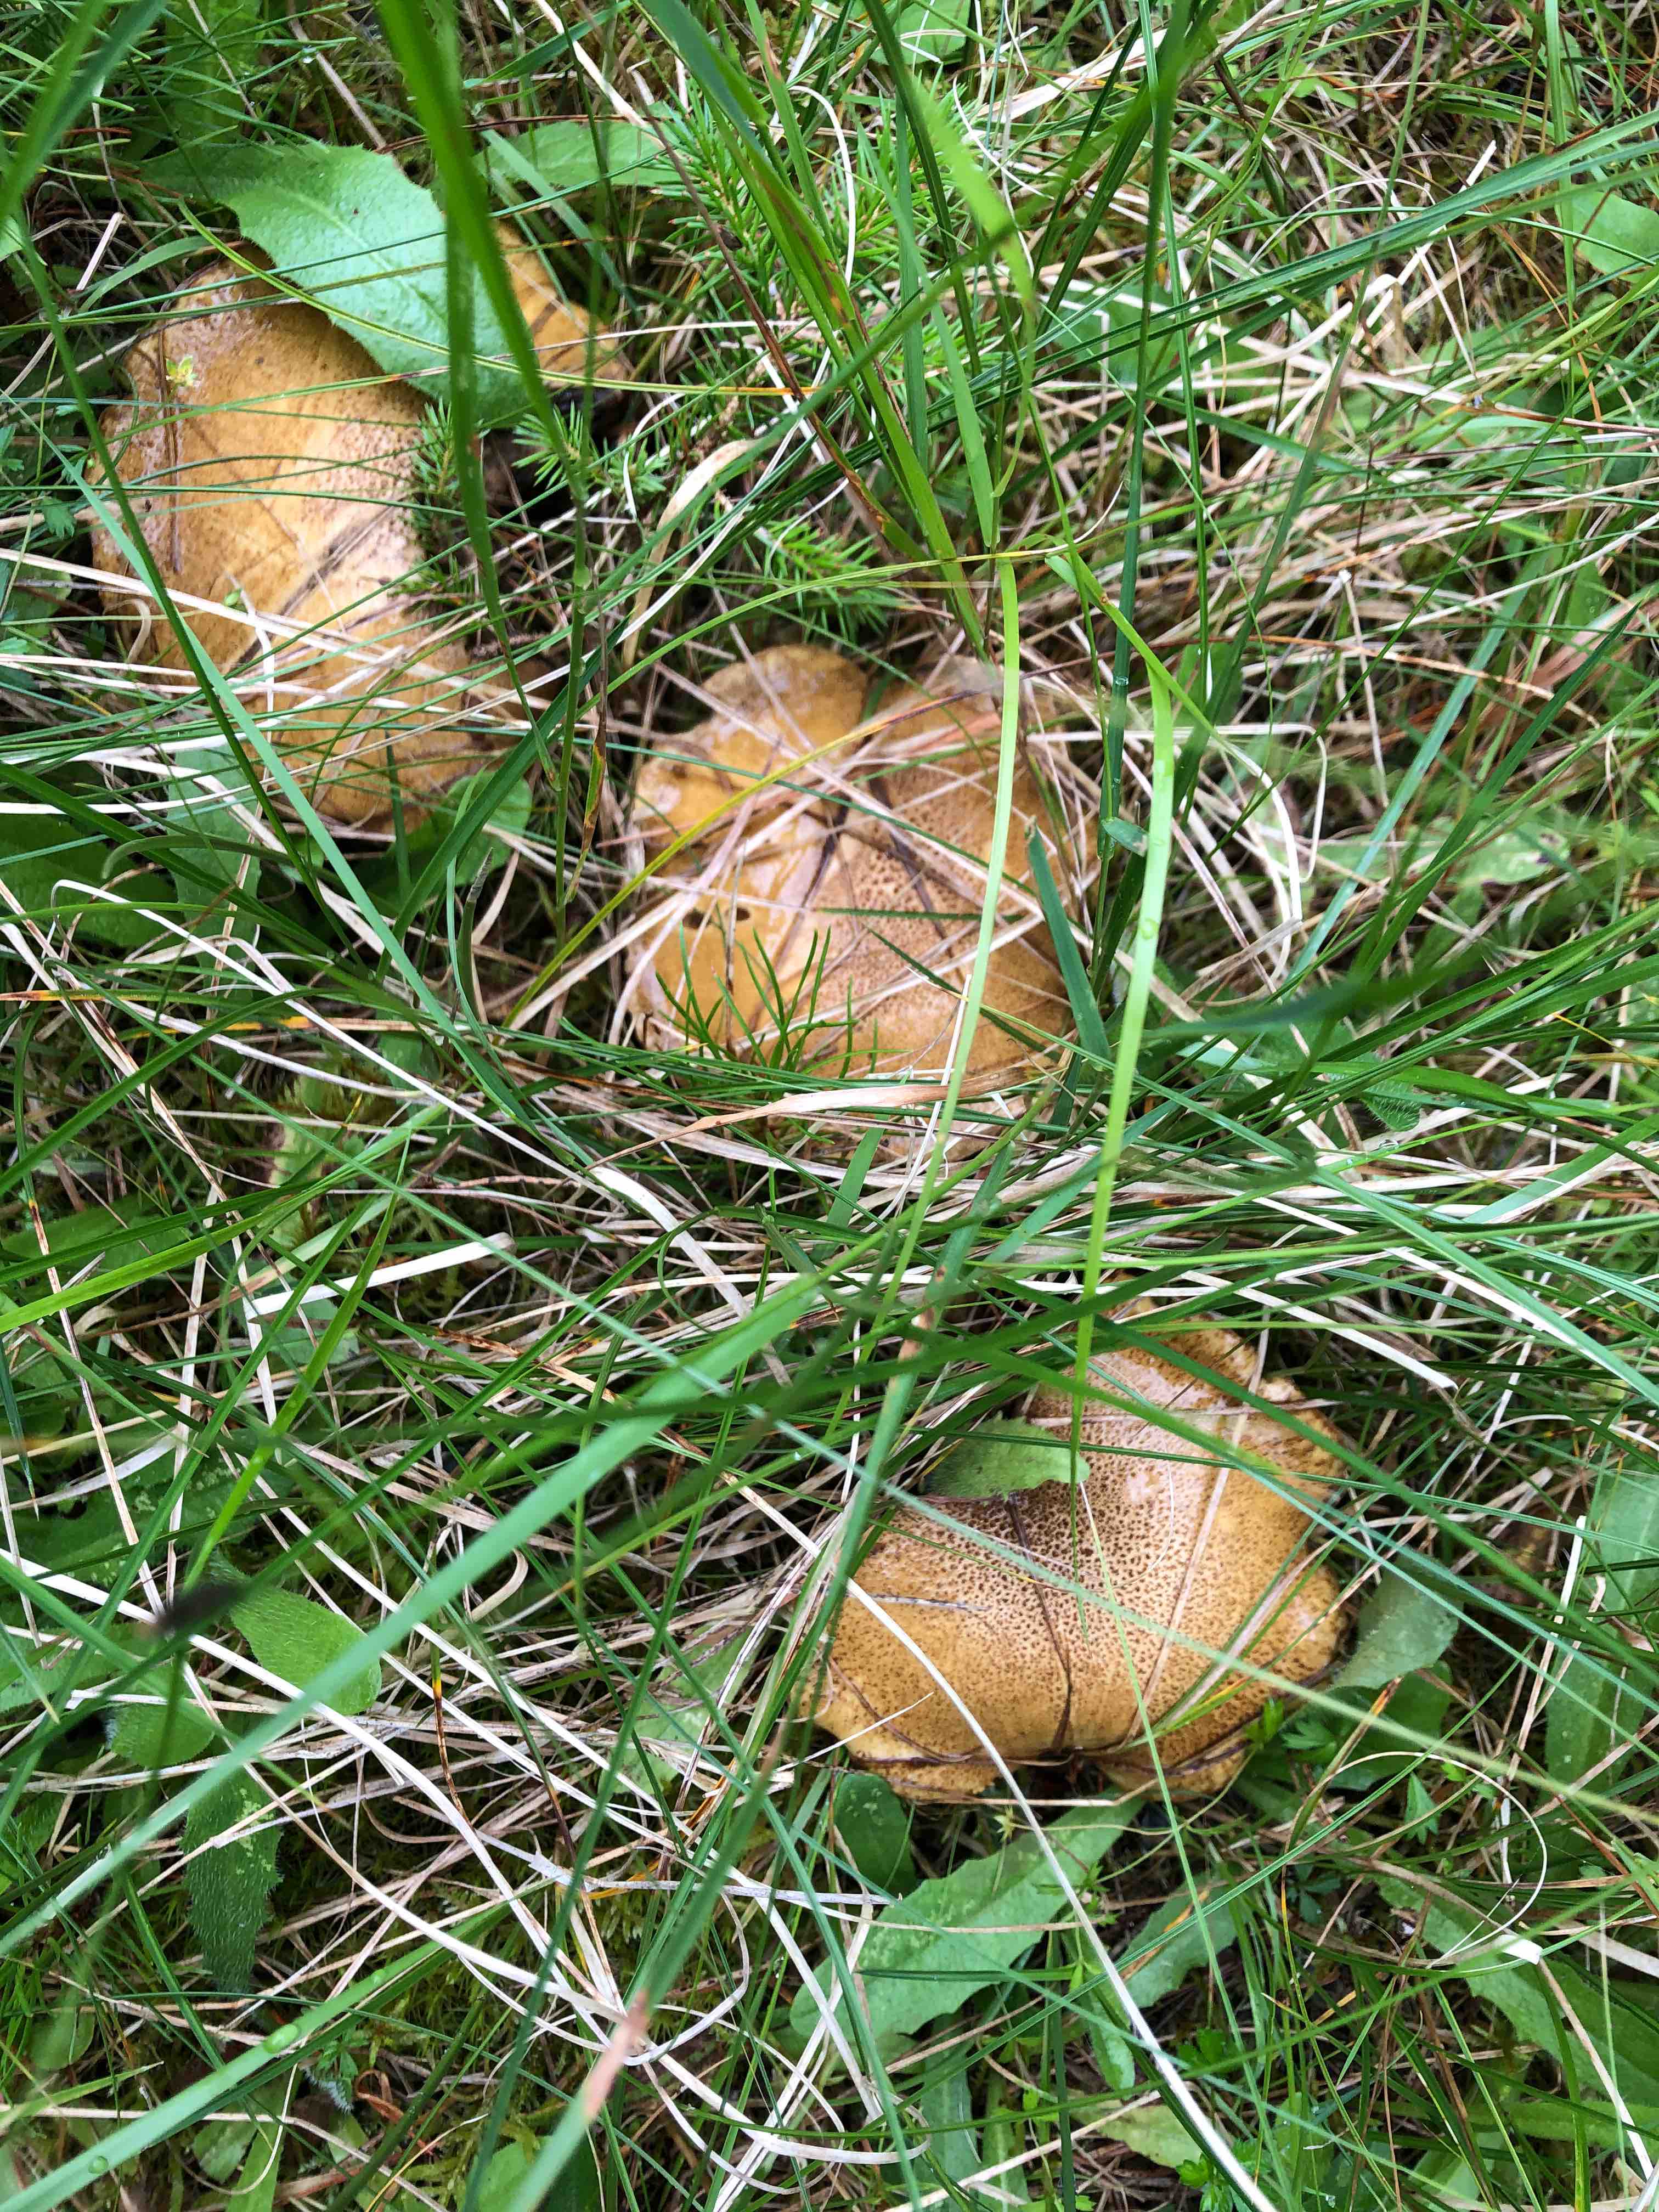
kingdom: Fungi
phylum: Basidiomycota
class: Agaricomycetes
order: Boletales
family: Suillaceae
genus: Suillus
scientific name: Suillus variegatus
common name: broget slimrørhat
